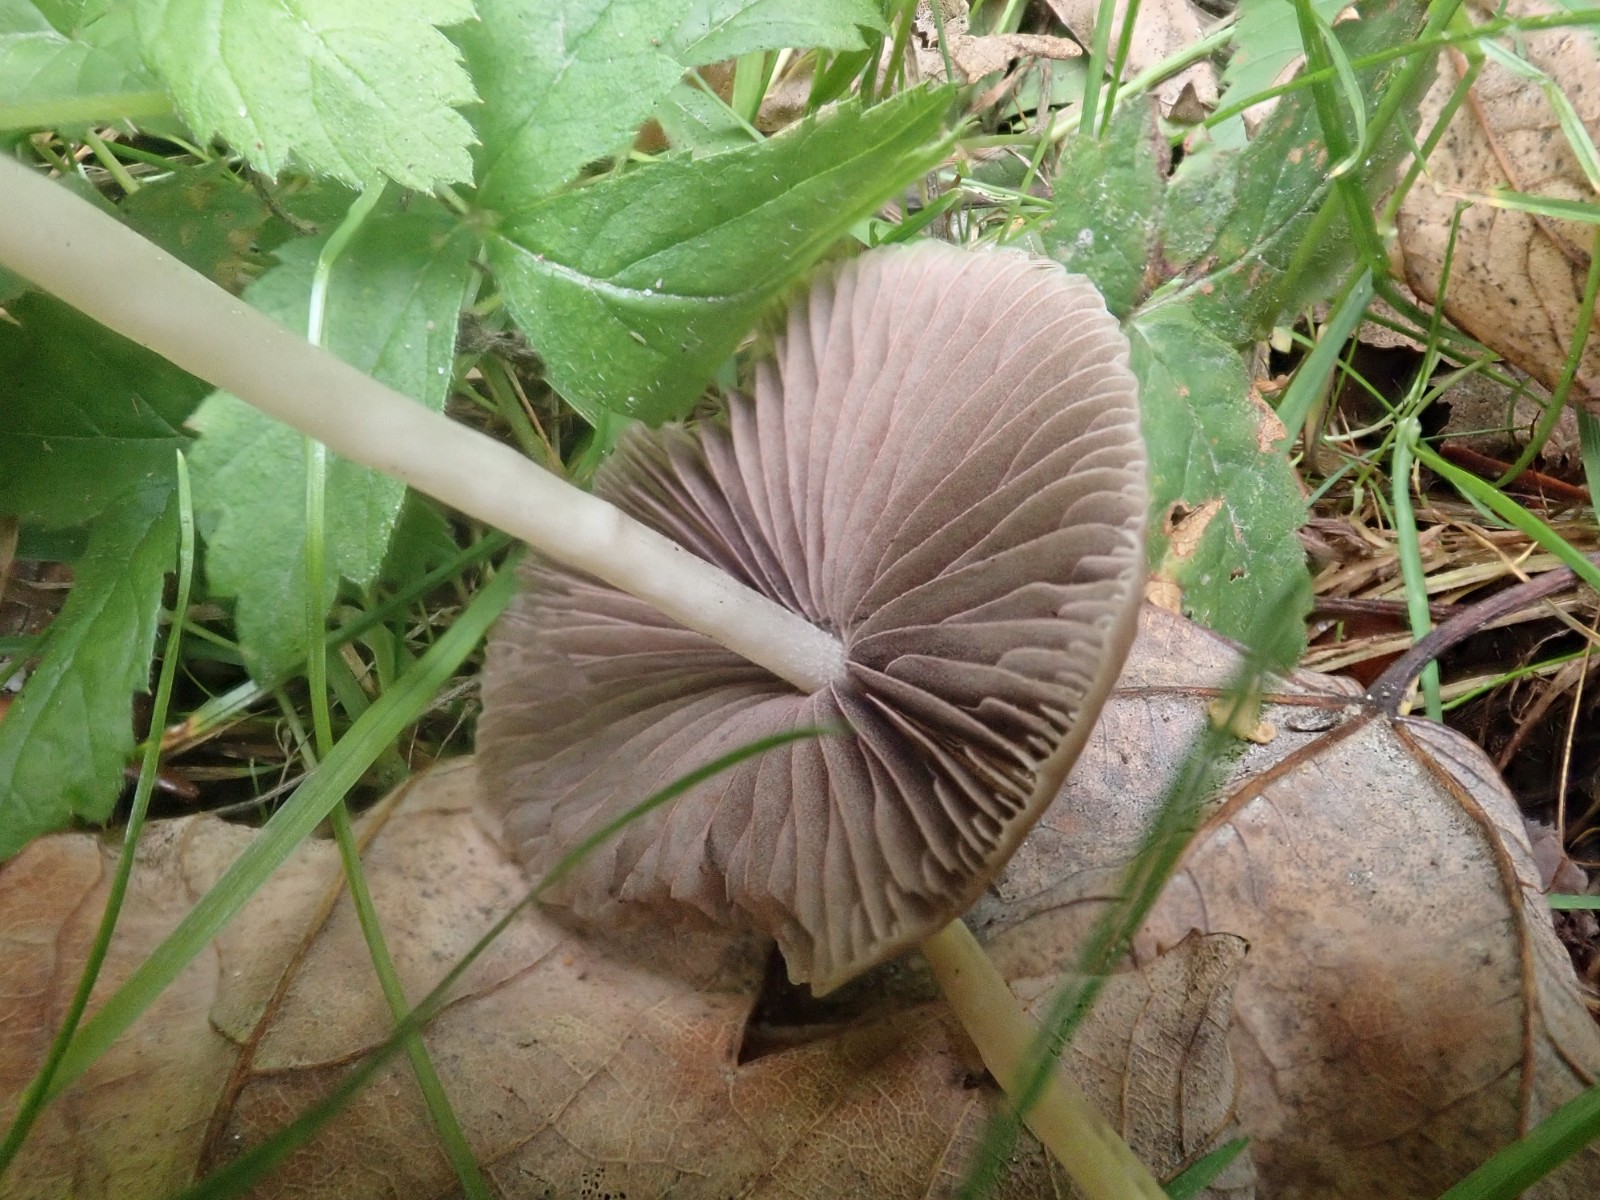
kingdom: Fungi
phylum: Basidiomycota
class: Agaricomycetes
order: Agaricales
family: Psathyrellaceae
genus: Psathyrella
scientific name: Psathyrella
